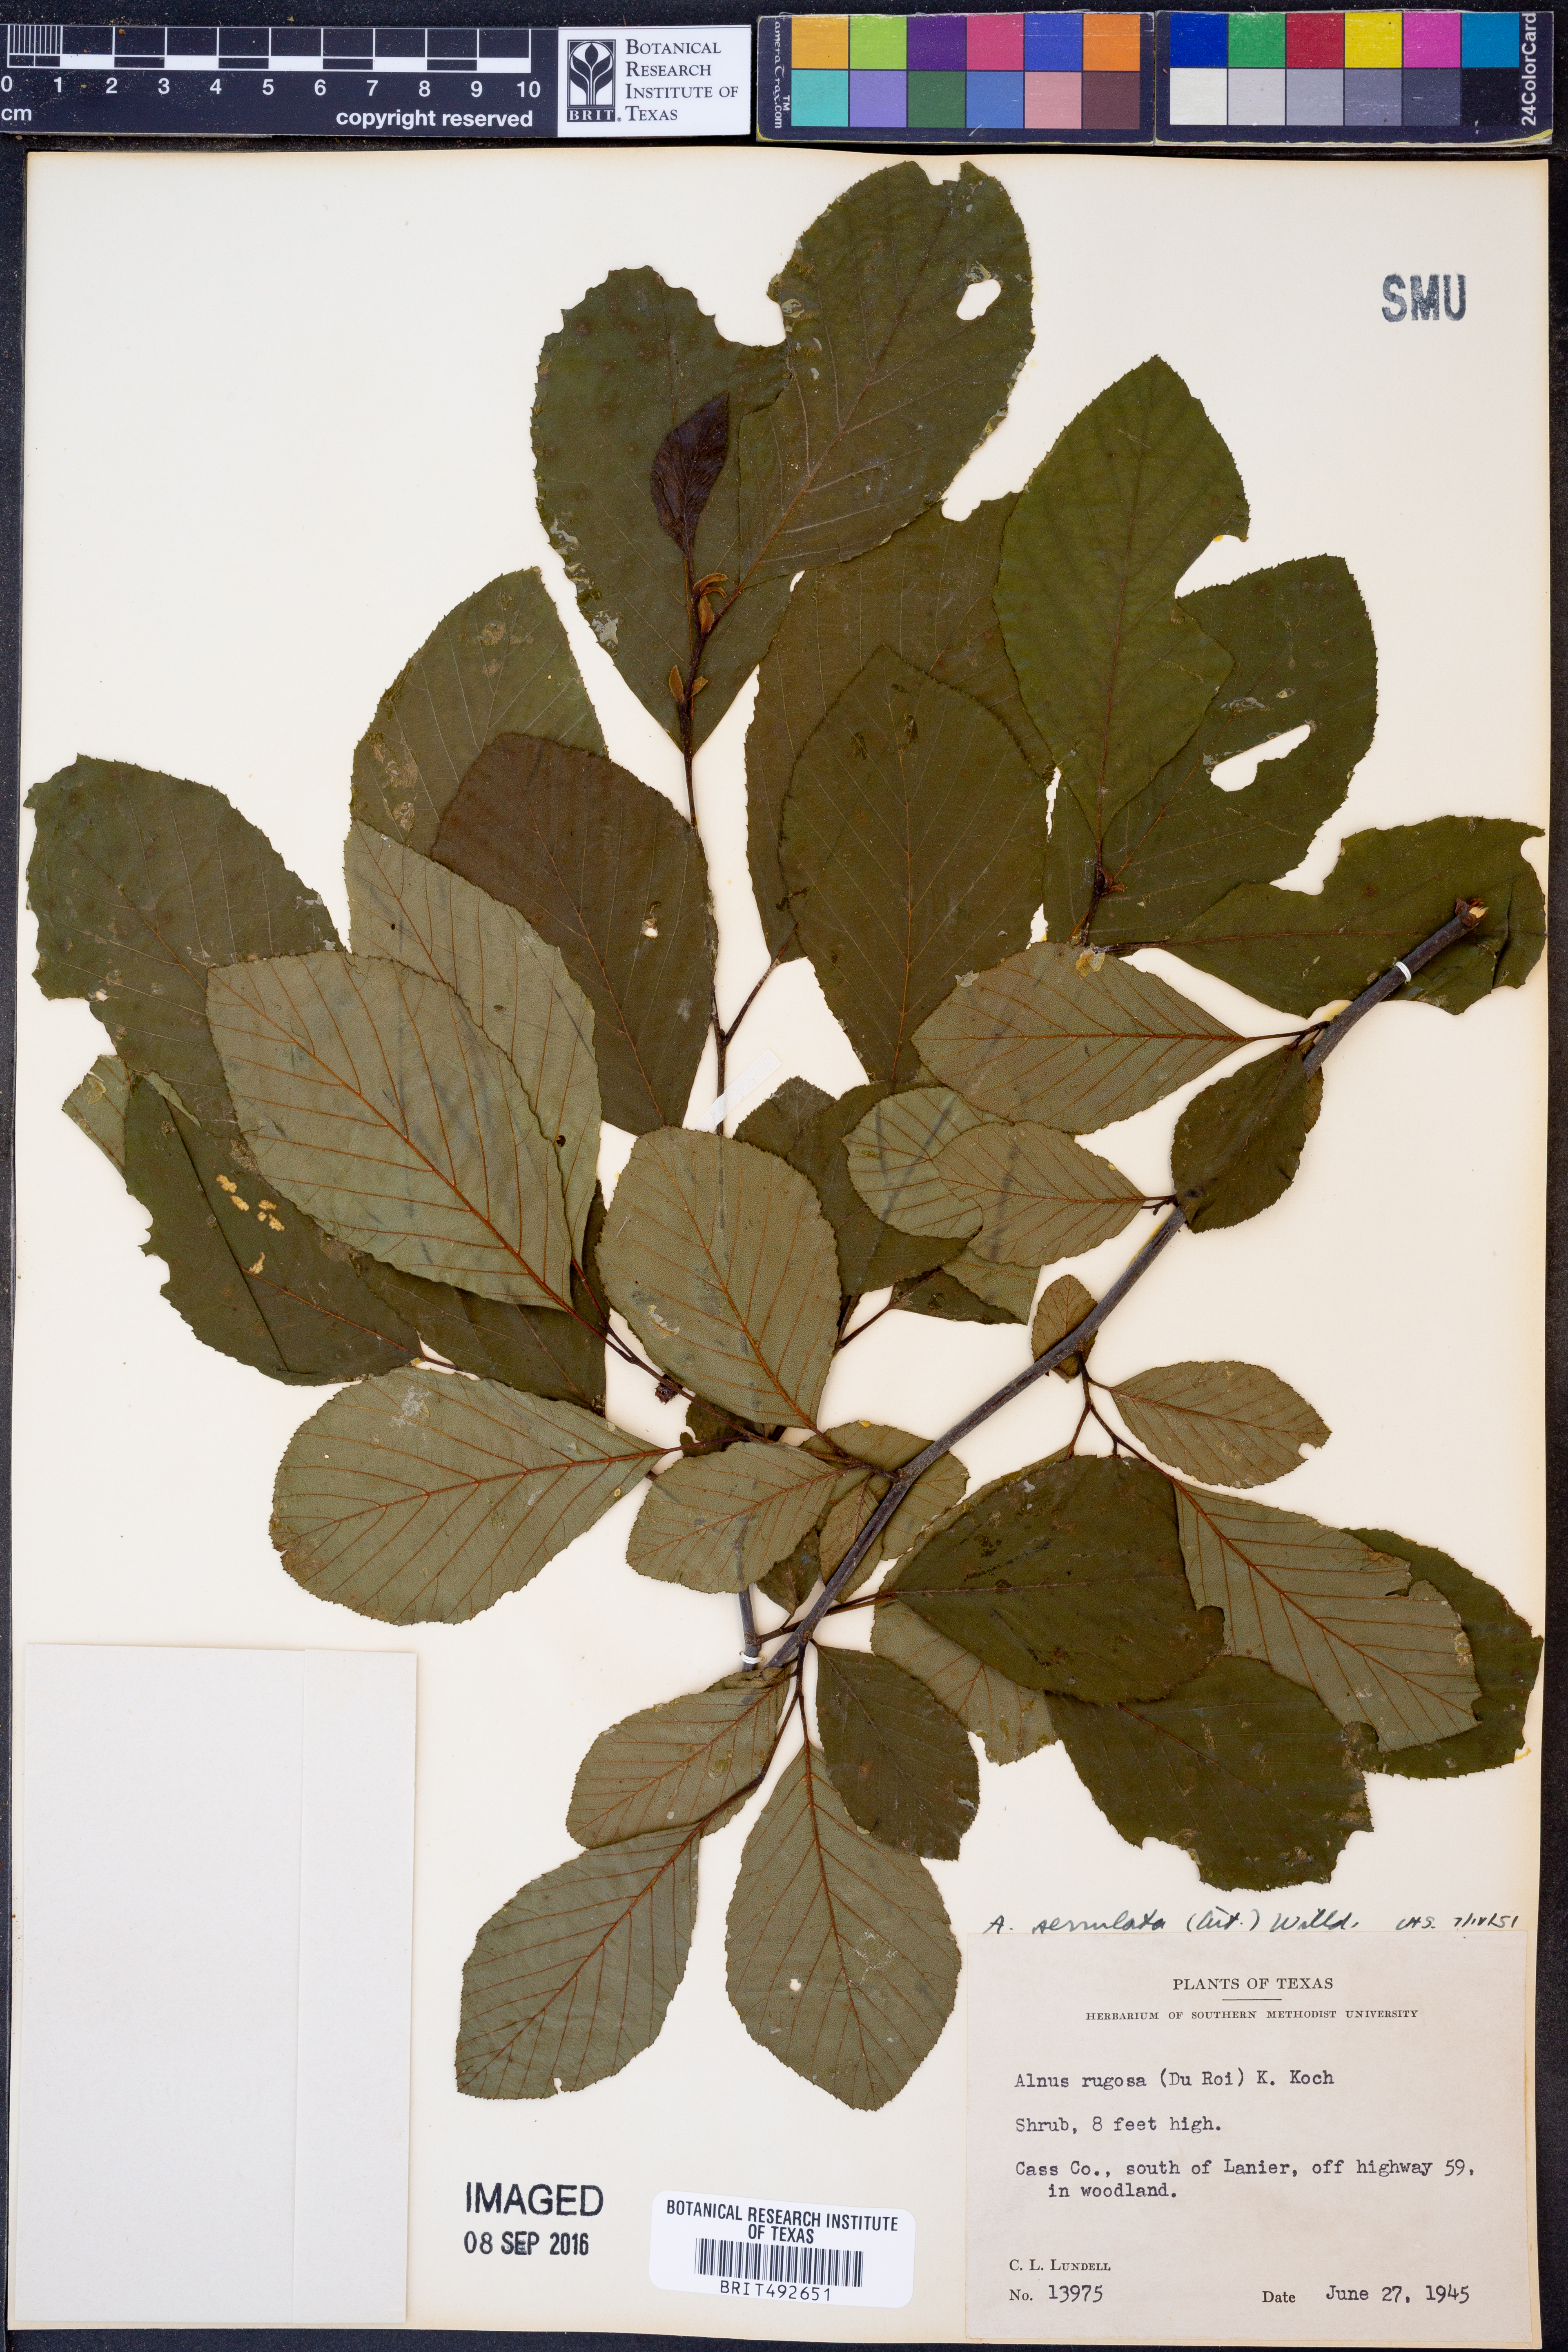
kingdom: Plantae
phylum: Tracheophyta
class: Magnoliopsida
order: Fagales
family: Betulaceae
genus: Alnus
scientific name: Alnus serrulata
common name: Hazel alder
